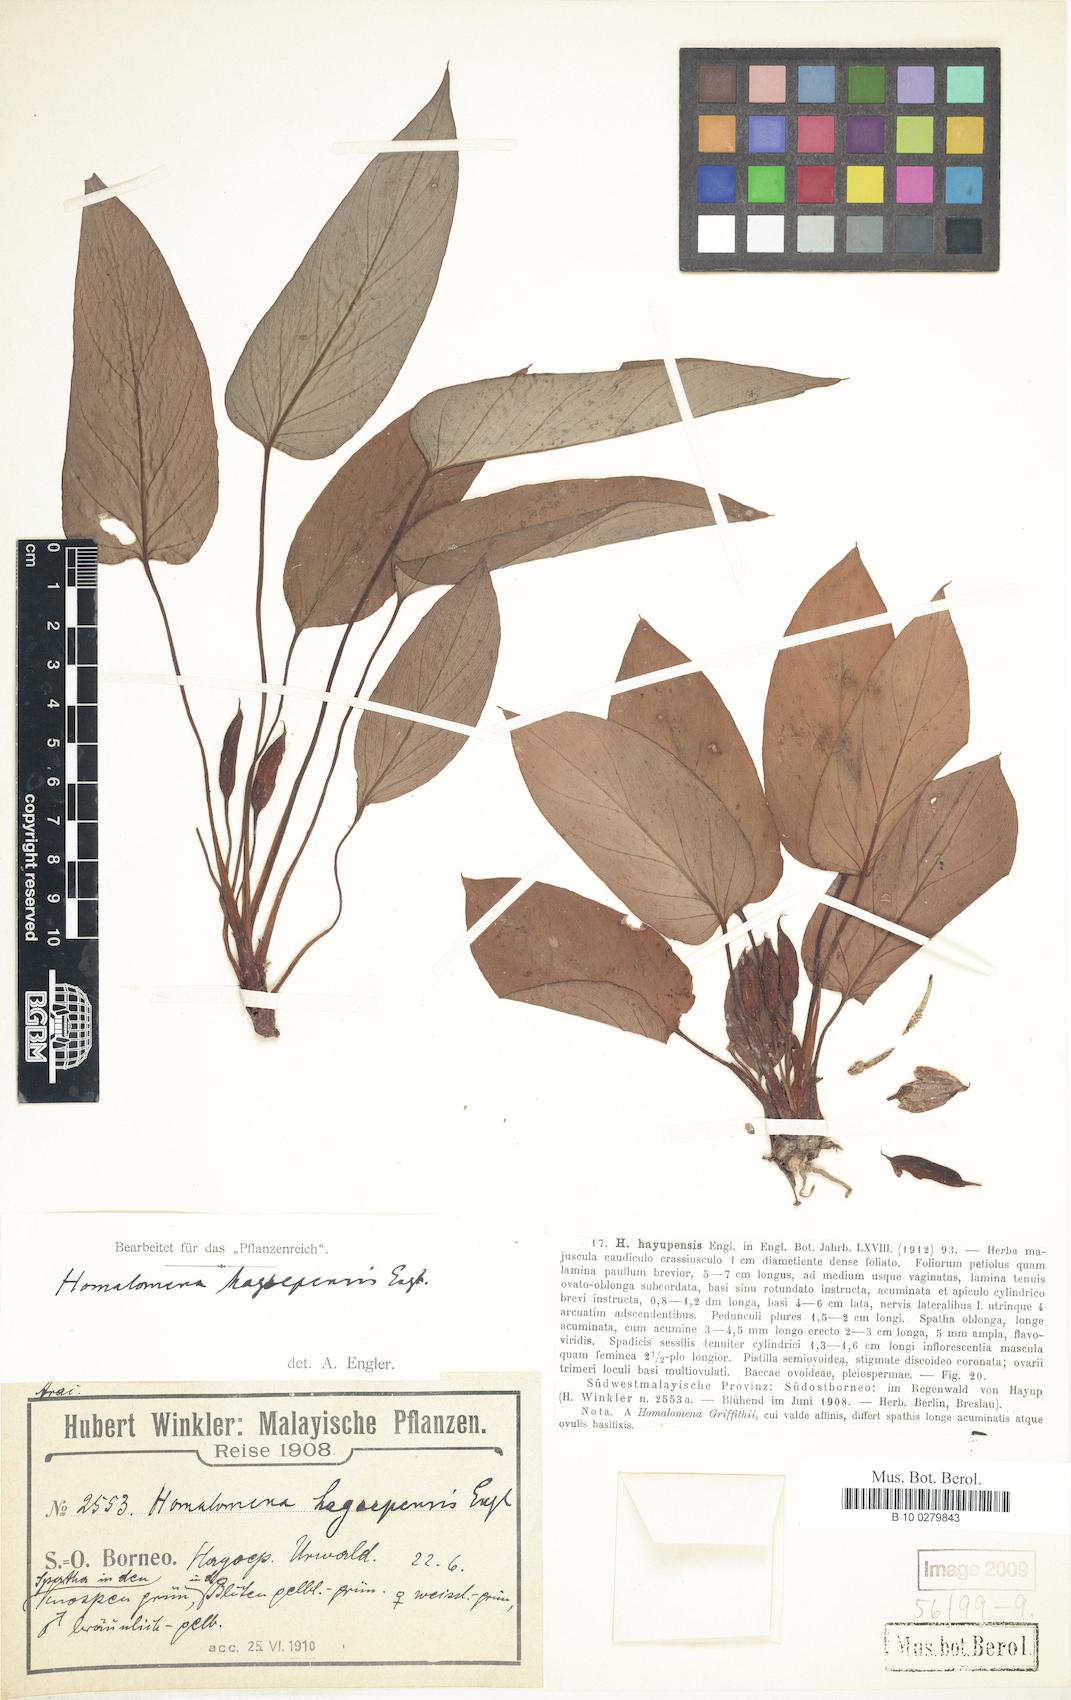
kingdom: Plantae
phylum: Tracheophyta
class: Liliopsida
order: Alismatales
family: Araceae
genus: Homalomena
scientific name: Homalomena griffithii
